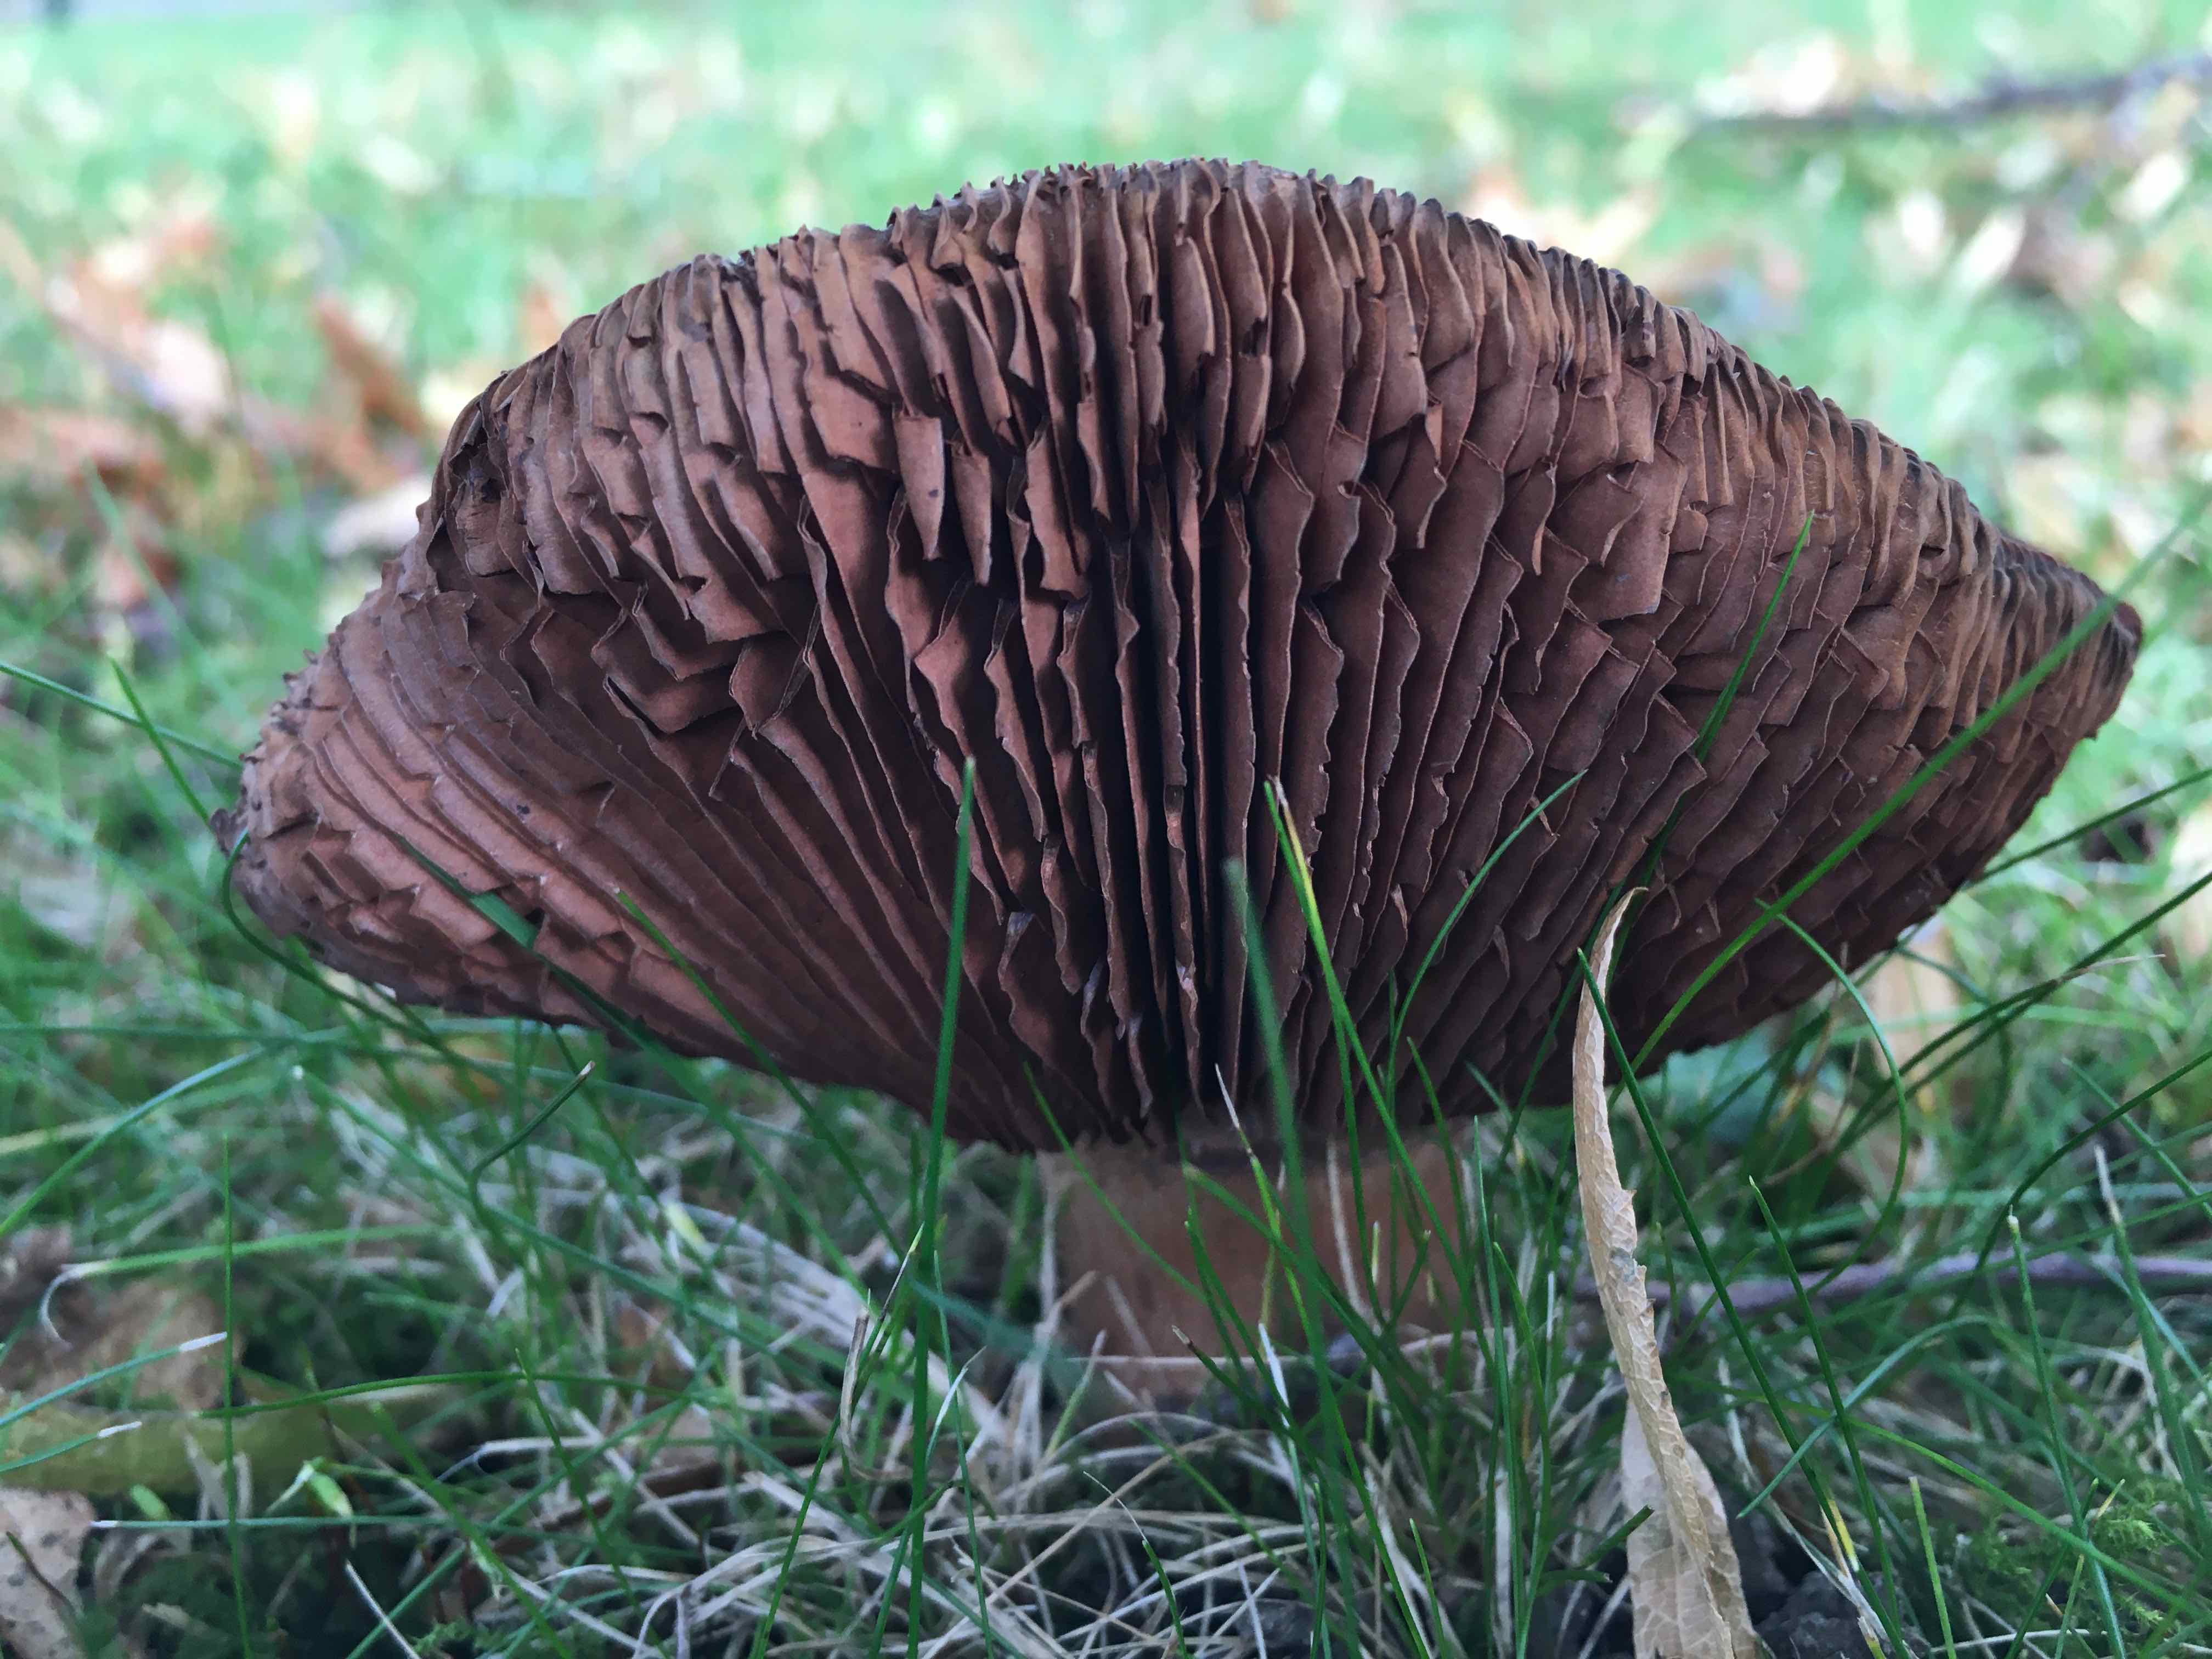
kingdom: Fungi
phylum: Basidiomycota
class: Agaricomycetes
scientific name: Agaricomycetes
